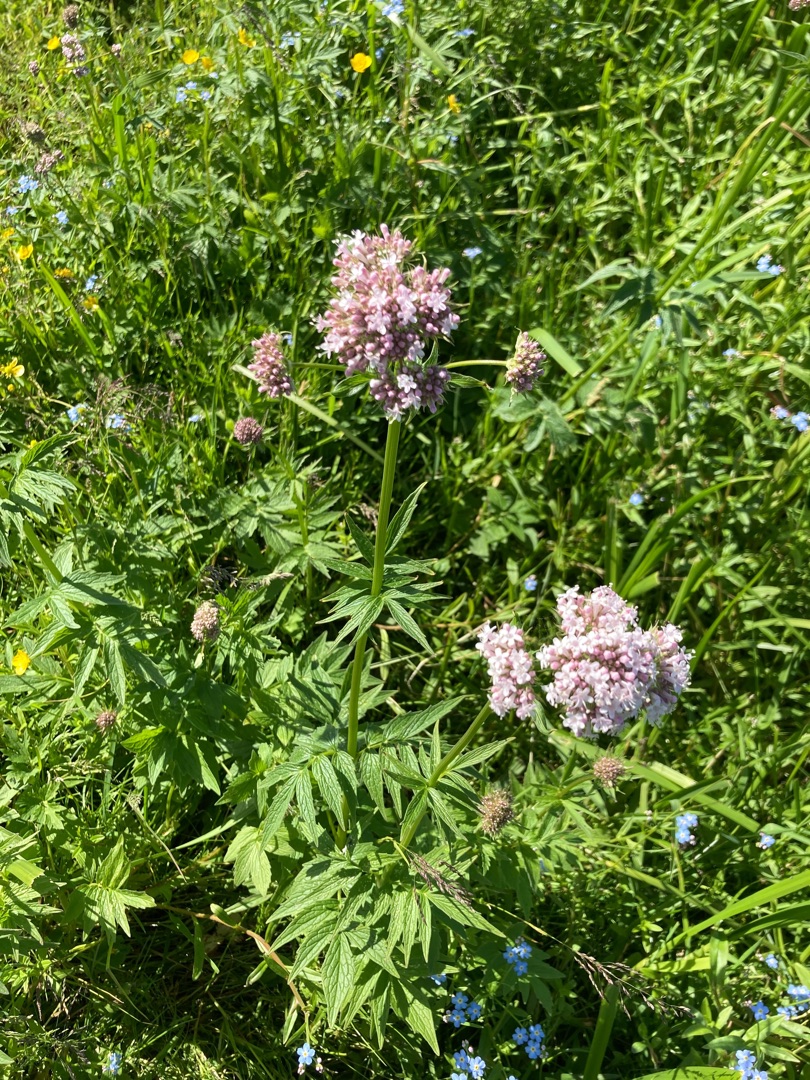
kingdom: Plantae
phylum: Tracheophyta
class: Magnoliopsida
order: Dipsacales
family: Caprifoliaceae
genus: Valeriana
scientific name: Valeriana sambucifolia
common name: Hyldebladet baldrian
